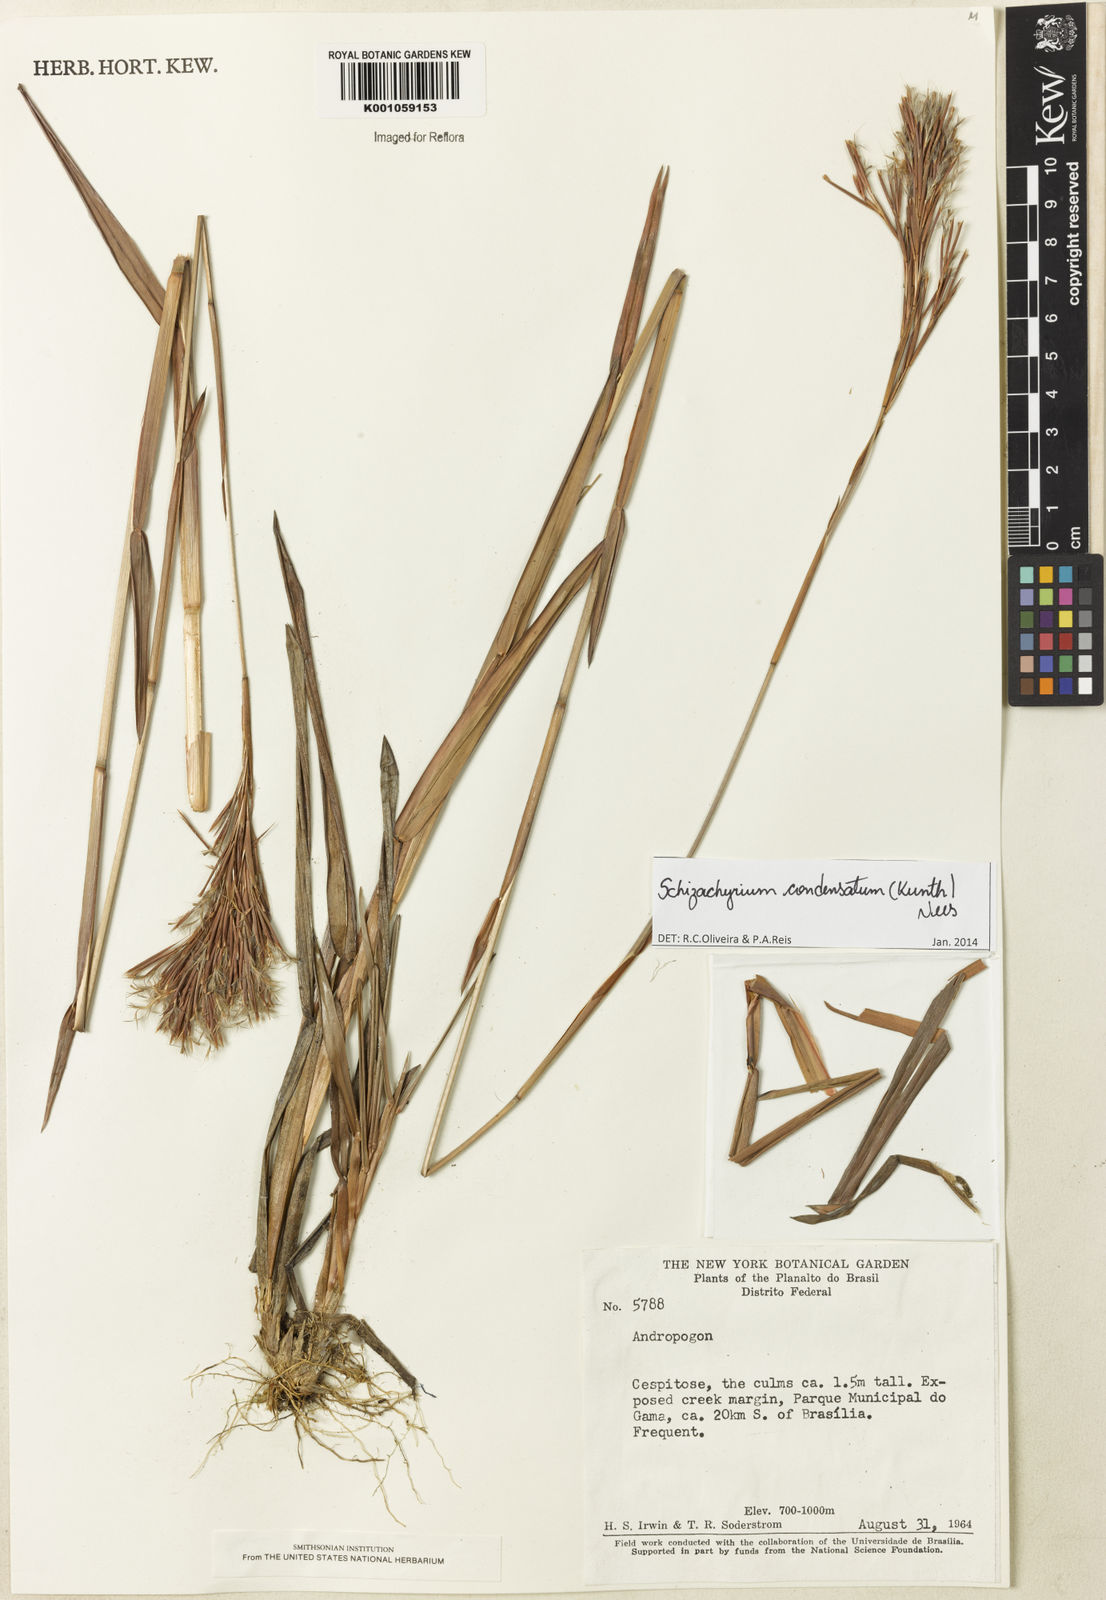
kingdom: Plantae
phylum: Tracheophyta
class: Liliopsida
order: Poales
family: Poaceae
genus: Schizachyrium
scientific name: Schizachyrium condensatum
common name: Bush beardgrass
